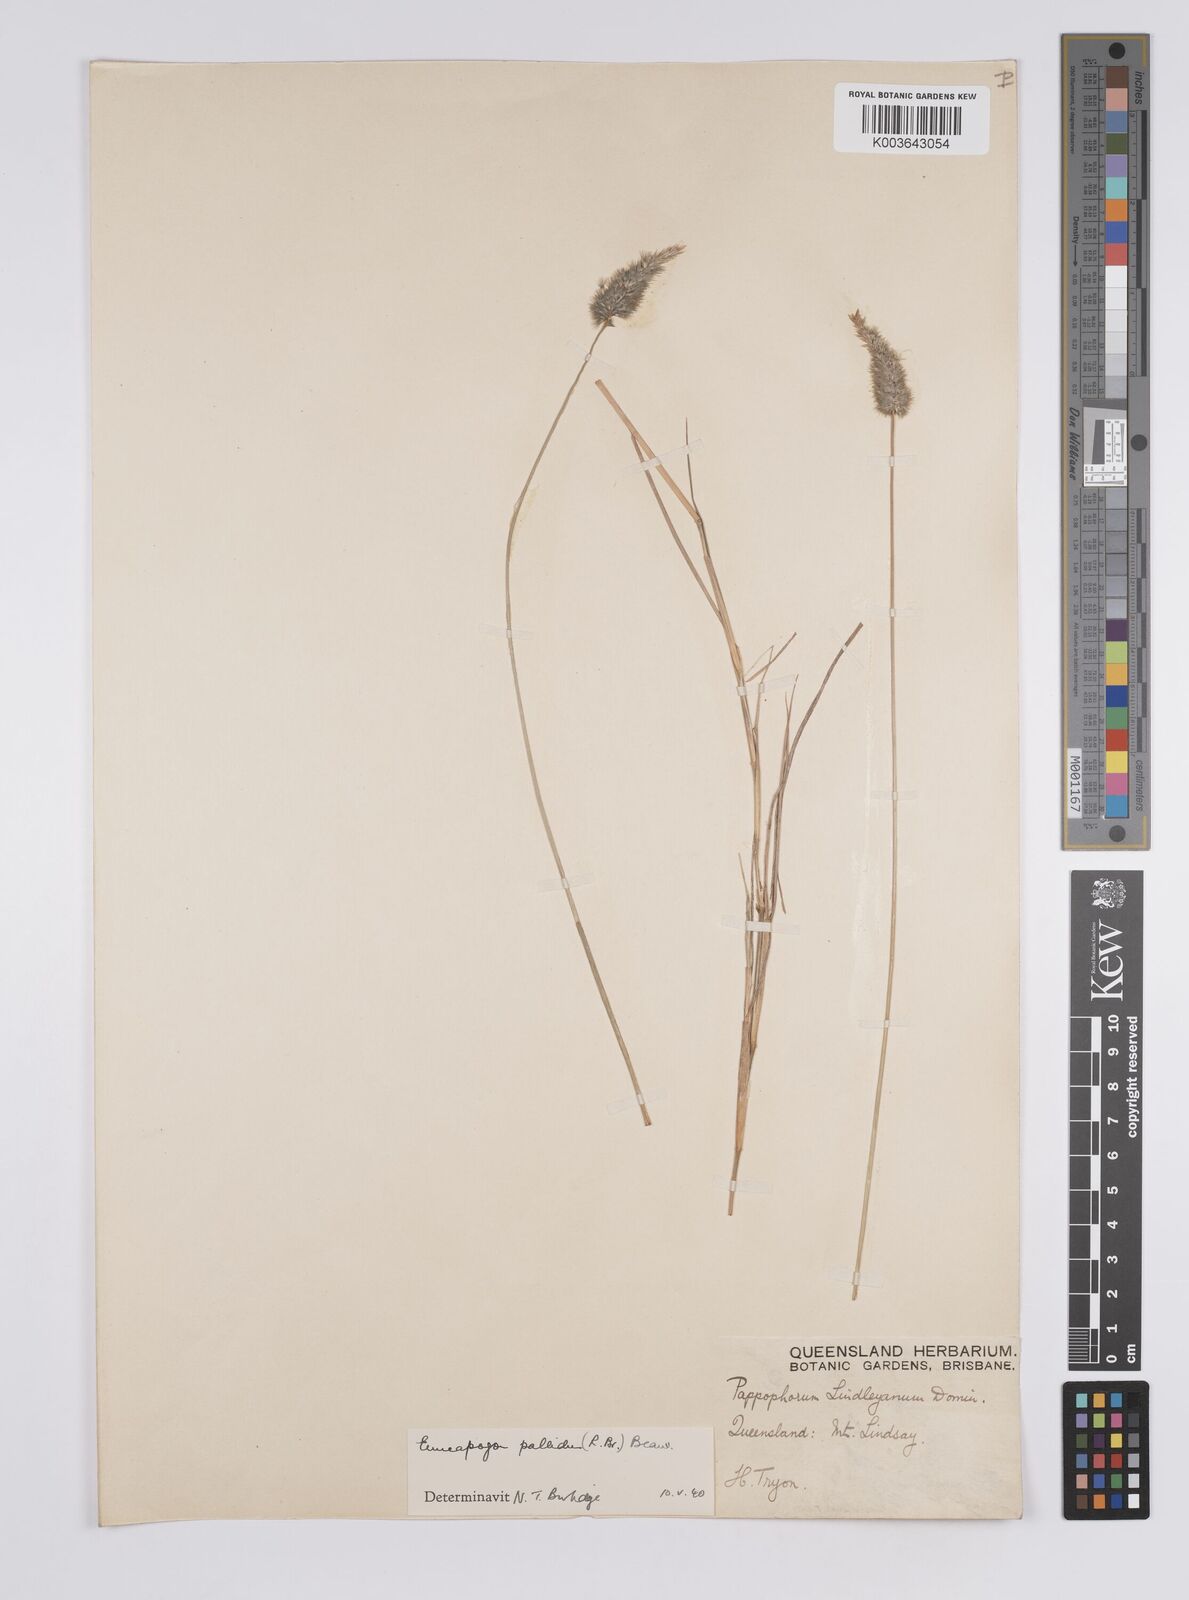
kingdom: Plantae
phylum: Tracheophyta
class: Liliopsida
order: Poales
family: Poaceae
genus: Enneapogon
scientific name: Enneapogon pallidus
